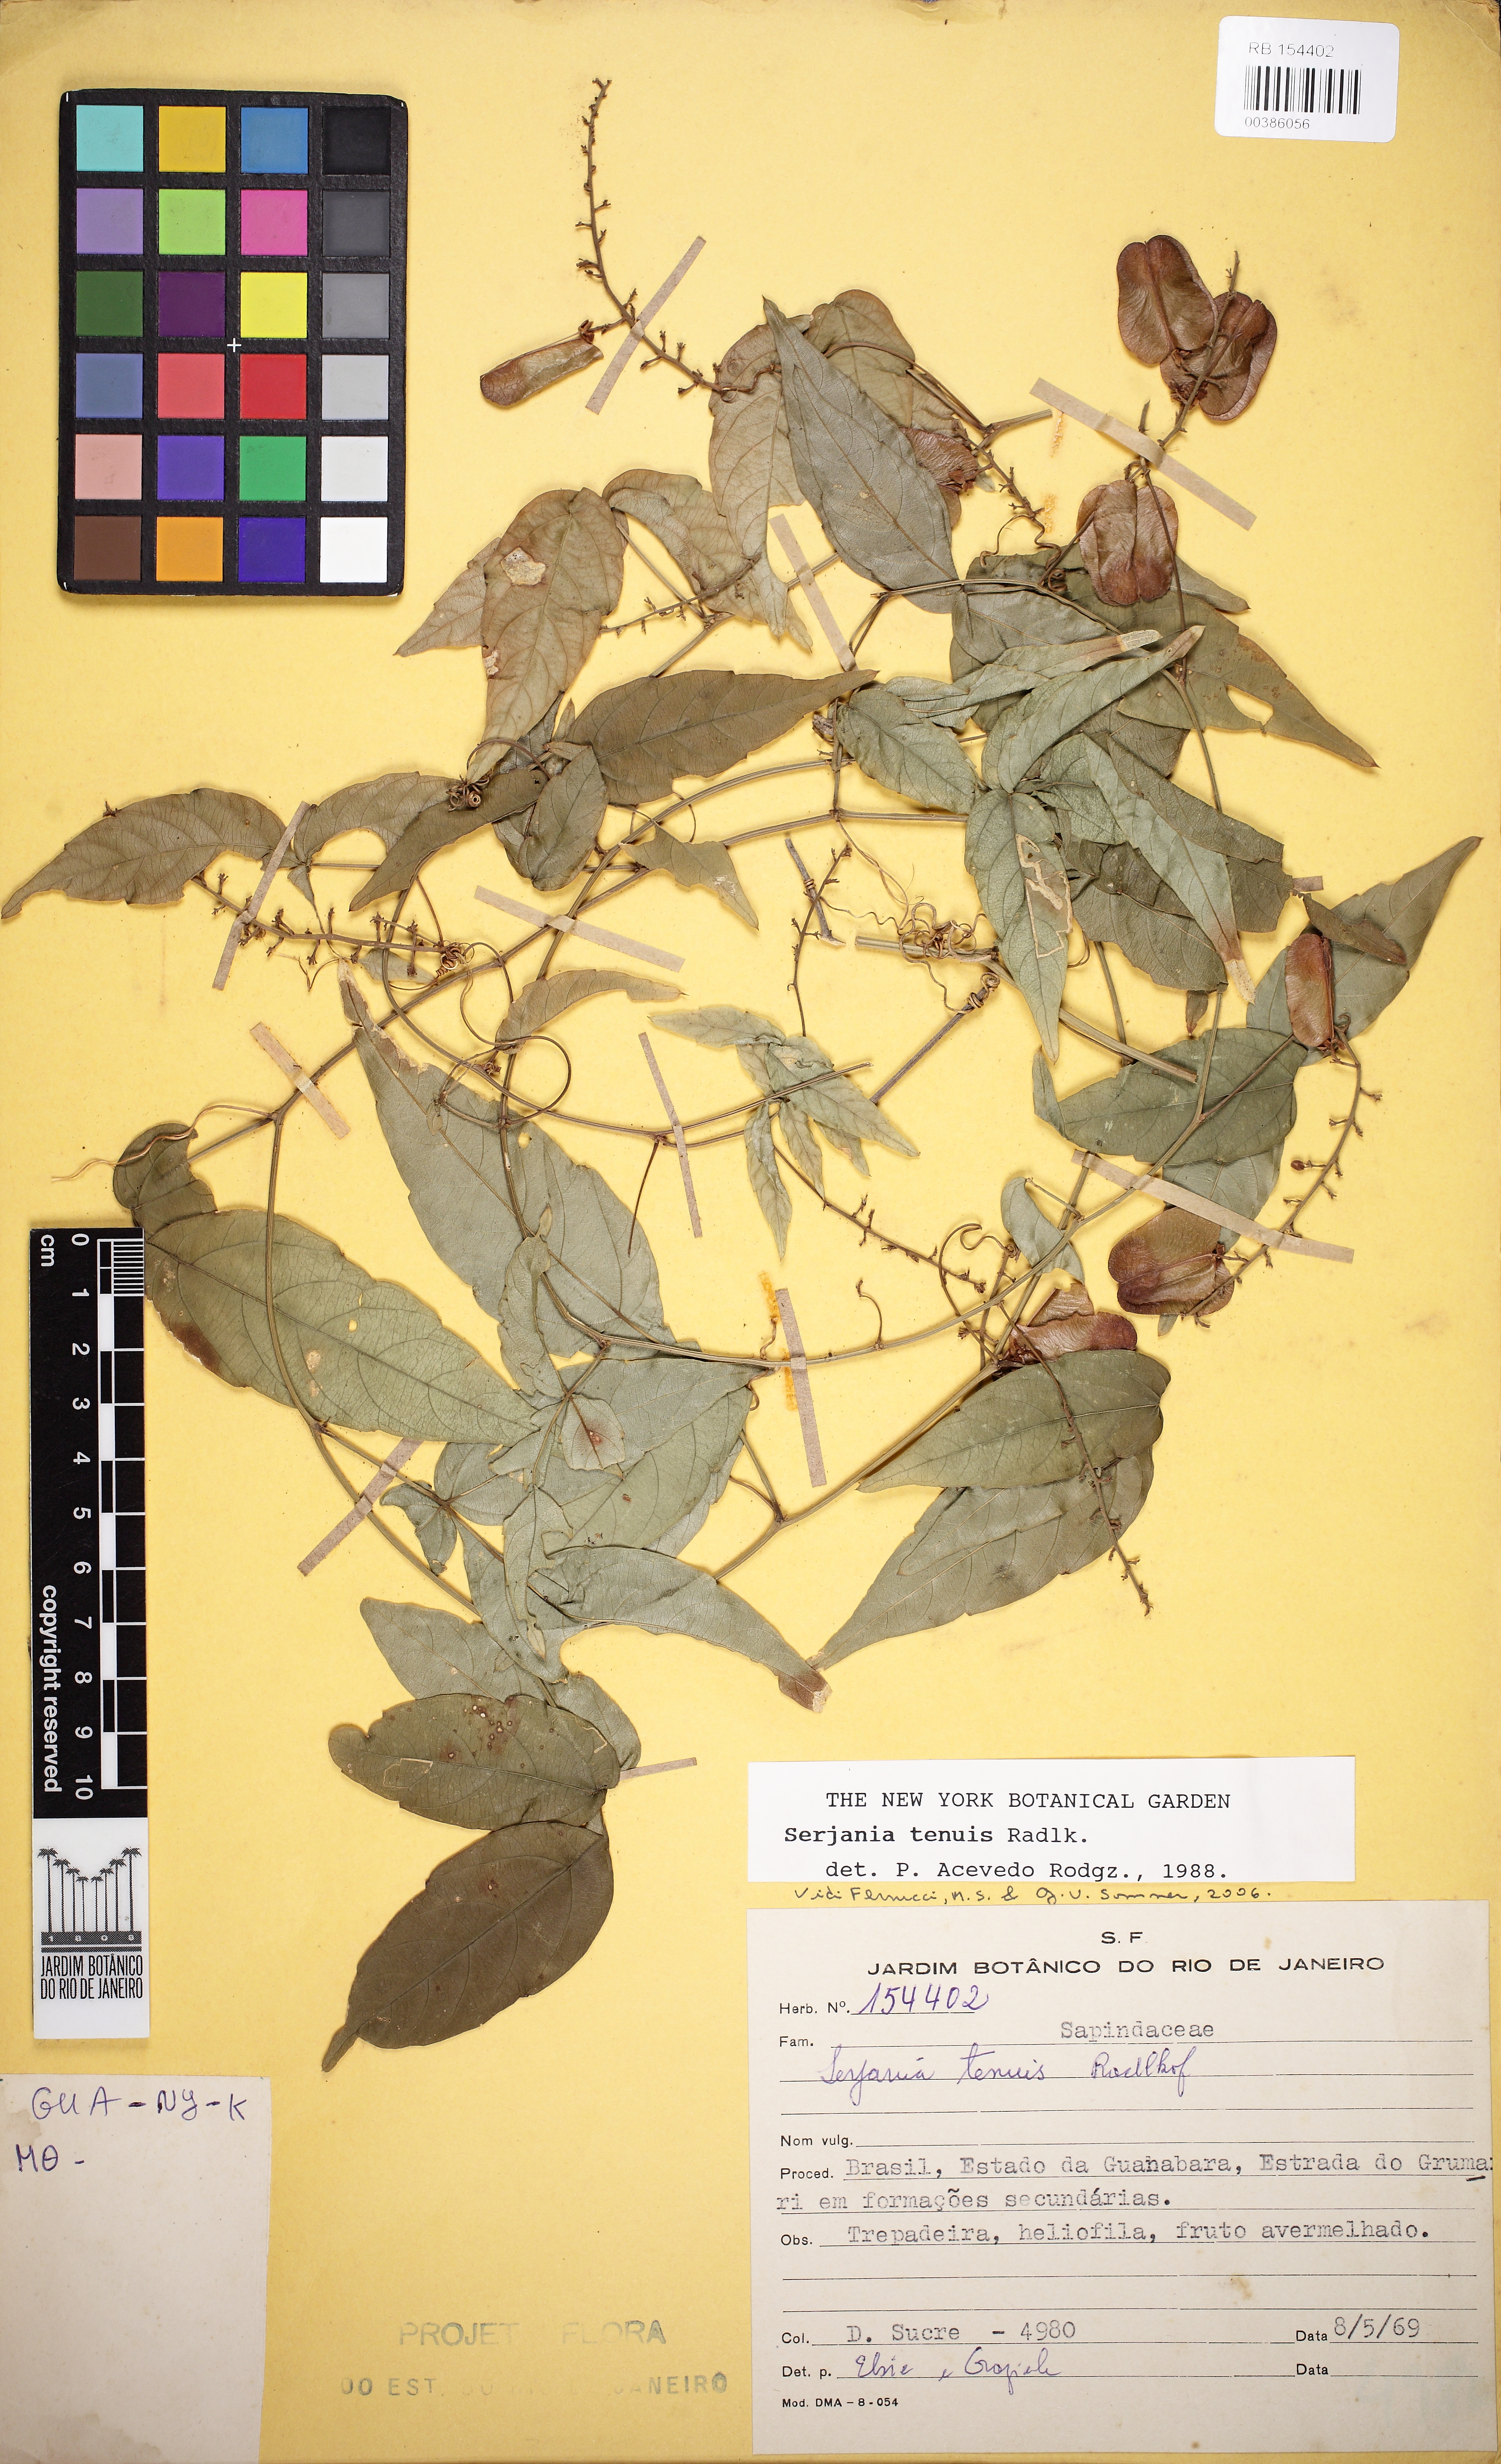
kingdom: Plantae
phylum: Tracheophyta
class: Magnoliopsida
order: Sapindales
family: Sapindaceae
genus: Serjania
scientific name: Serjania tenuis
